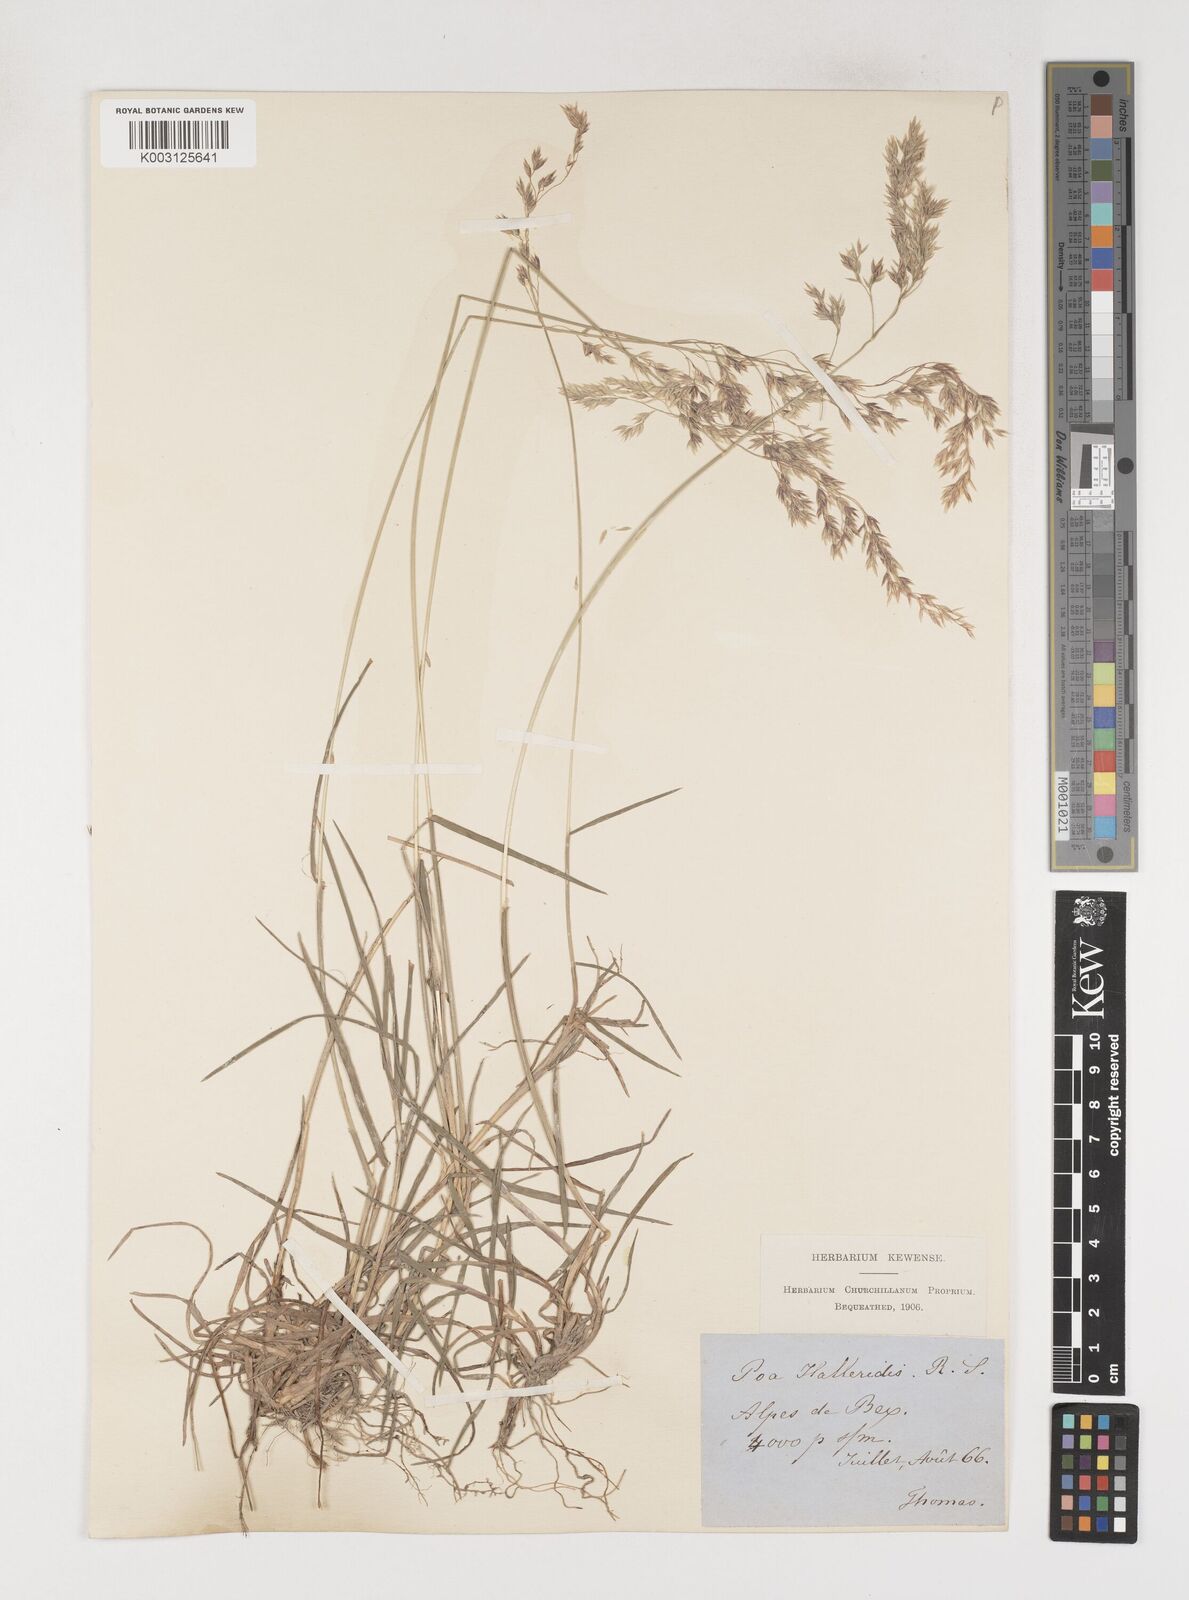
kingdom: Plantae
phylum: Tracheophyta
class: Liliopsida
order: Poales
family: Poaceae
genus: Poa
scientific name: Poa
